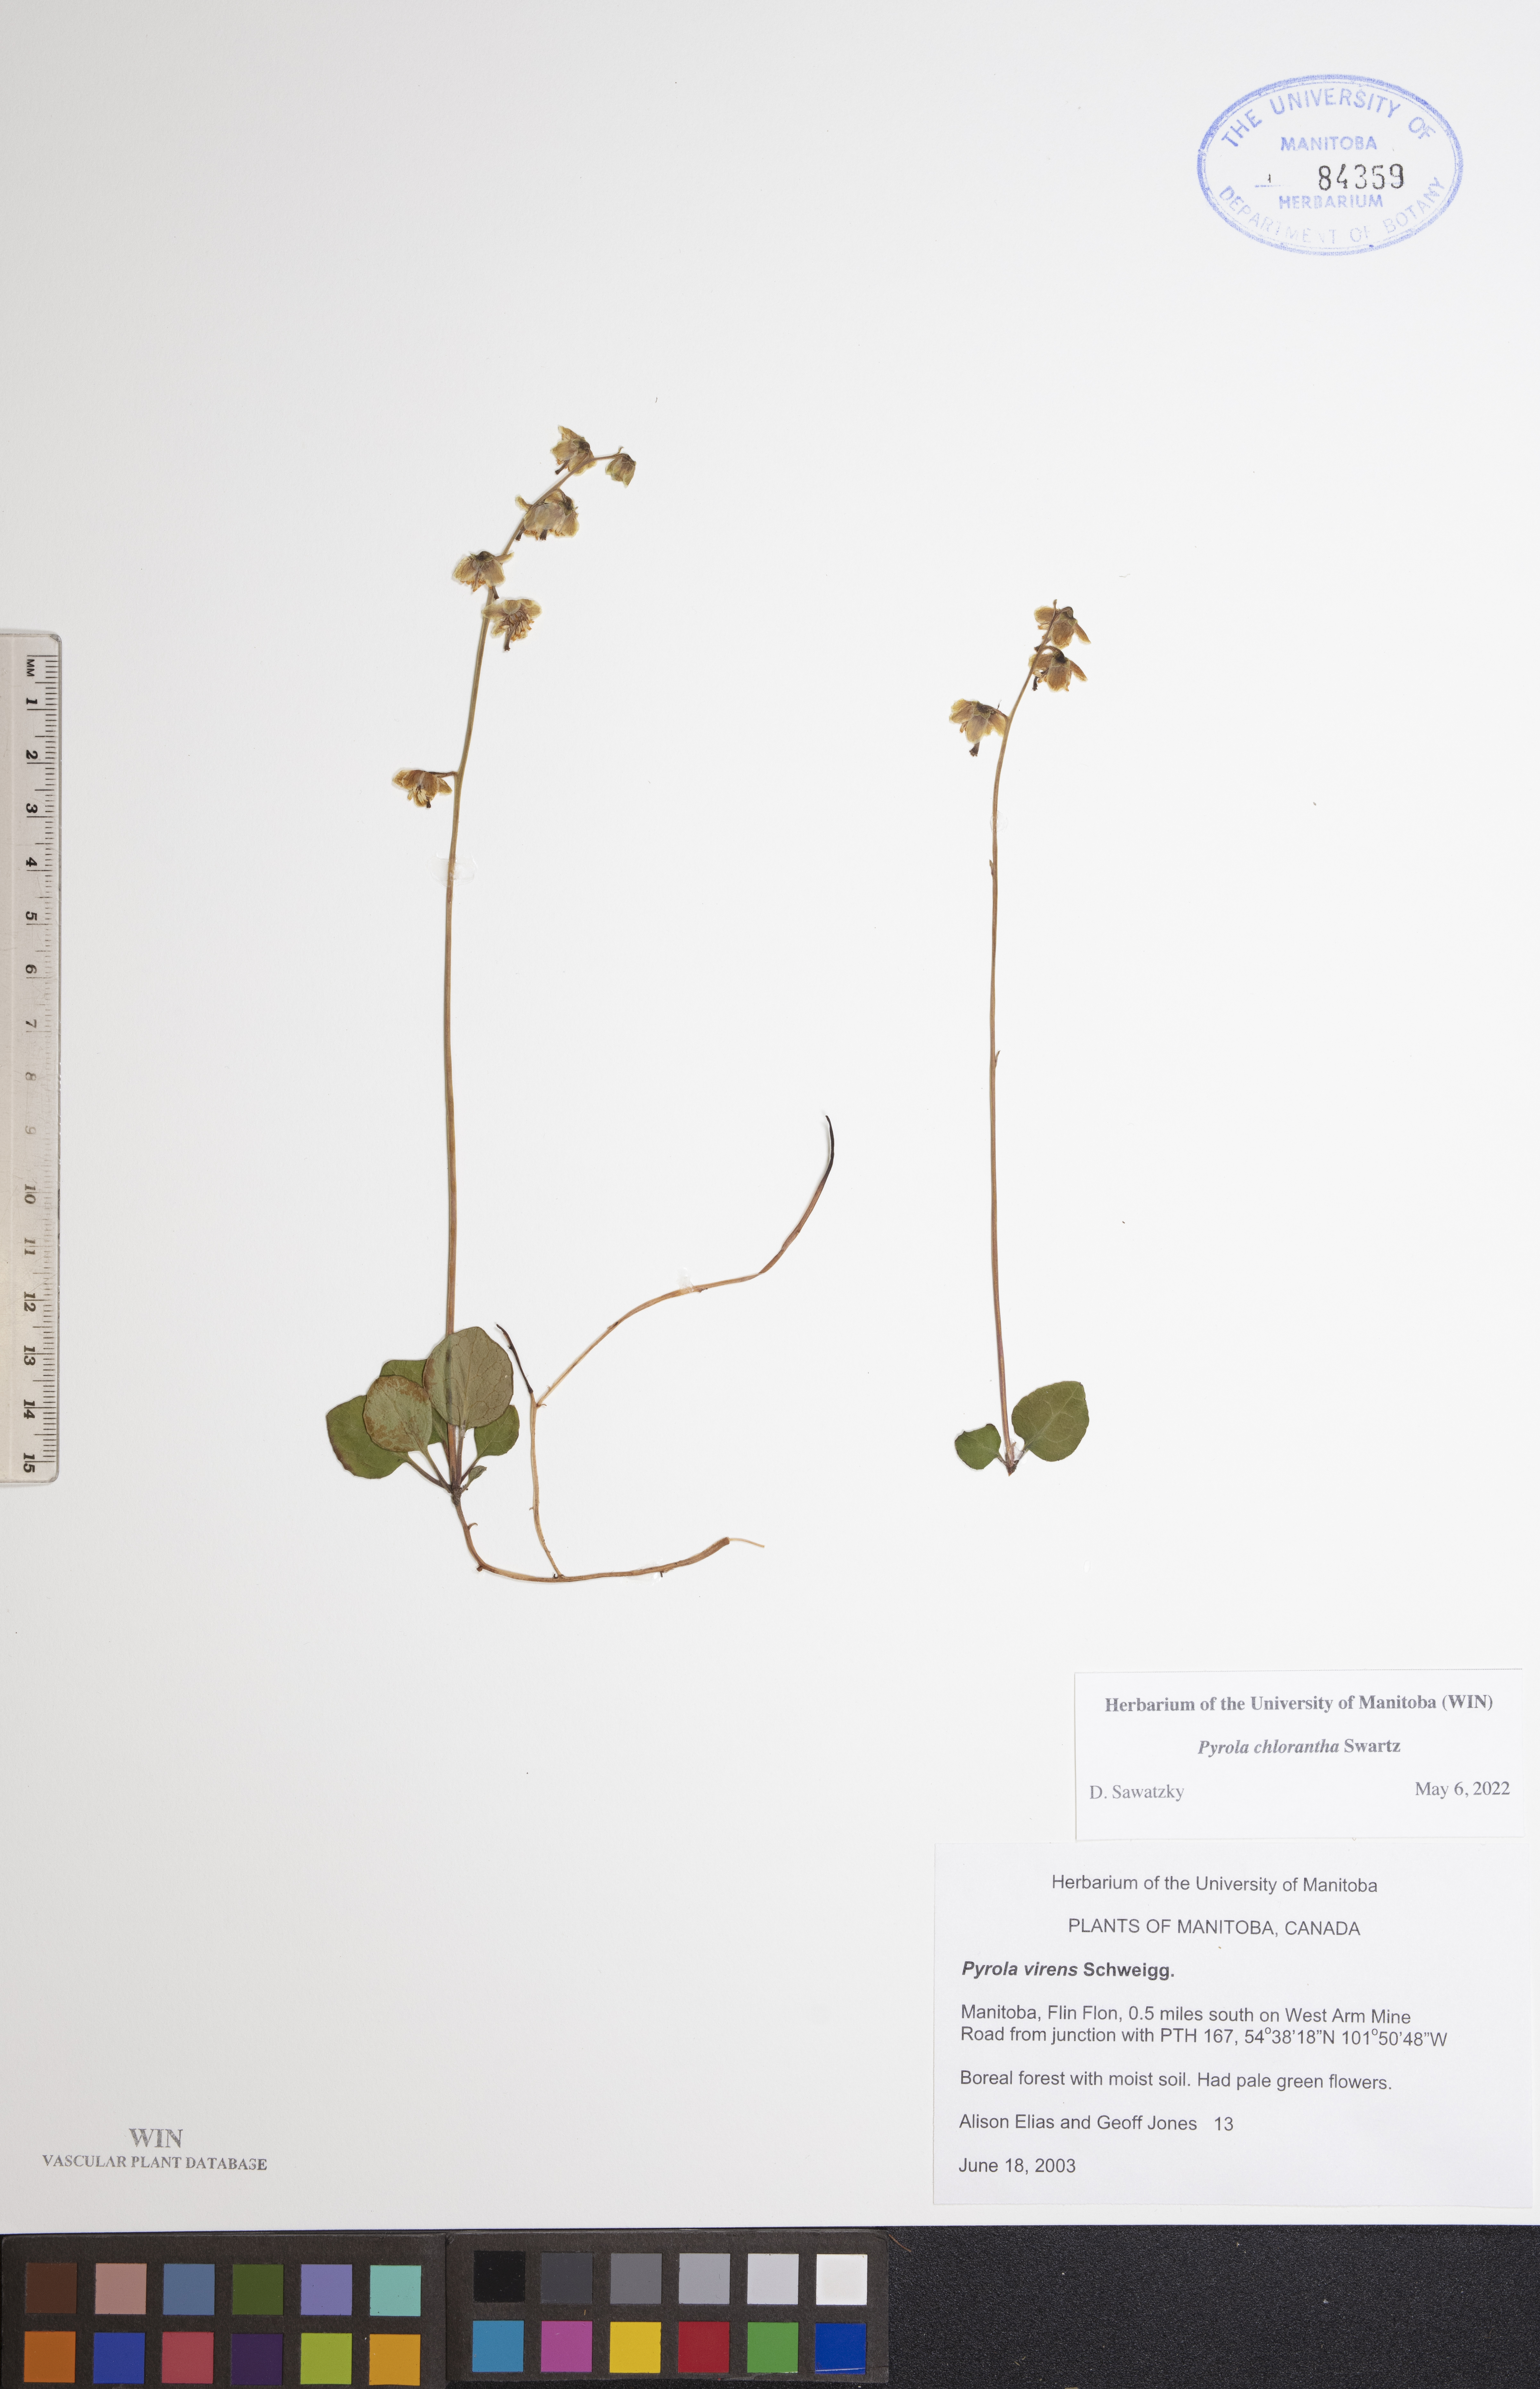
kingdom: Plantae
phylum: Tracheophyta
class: Magnoliopsida
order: Ericales
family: Ericaceae
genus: Pyrola
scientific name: Pyrola chlorantha
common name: Green wintergreen
